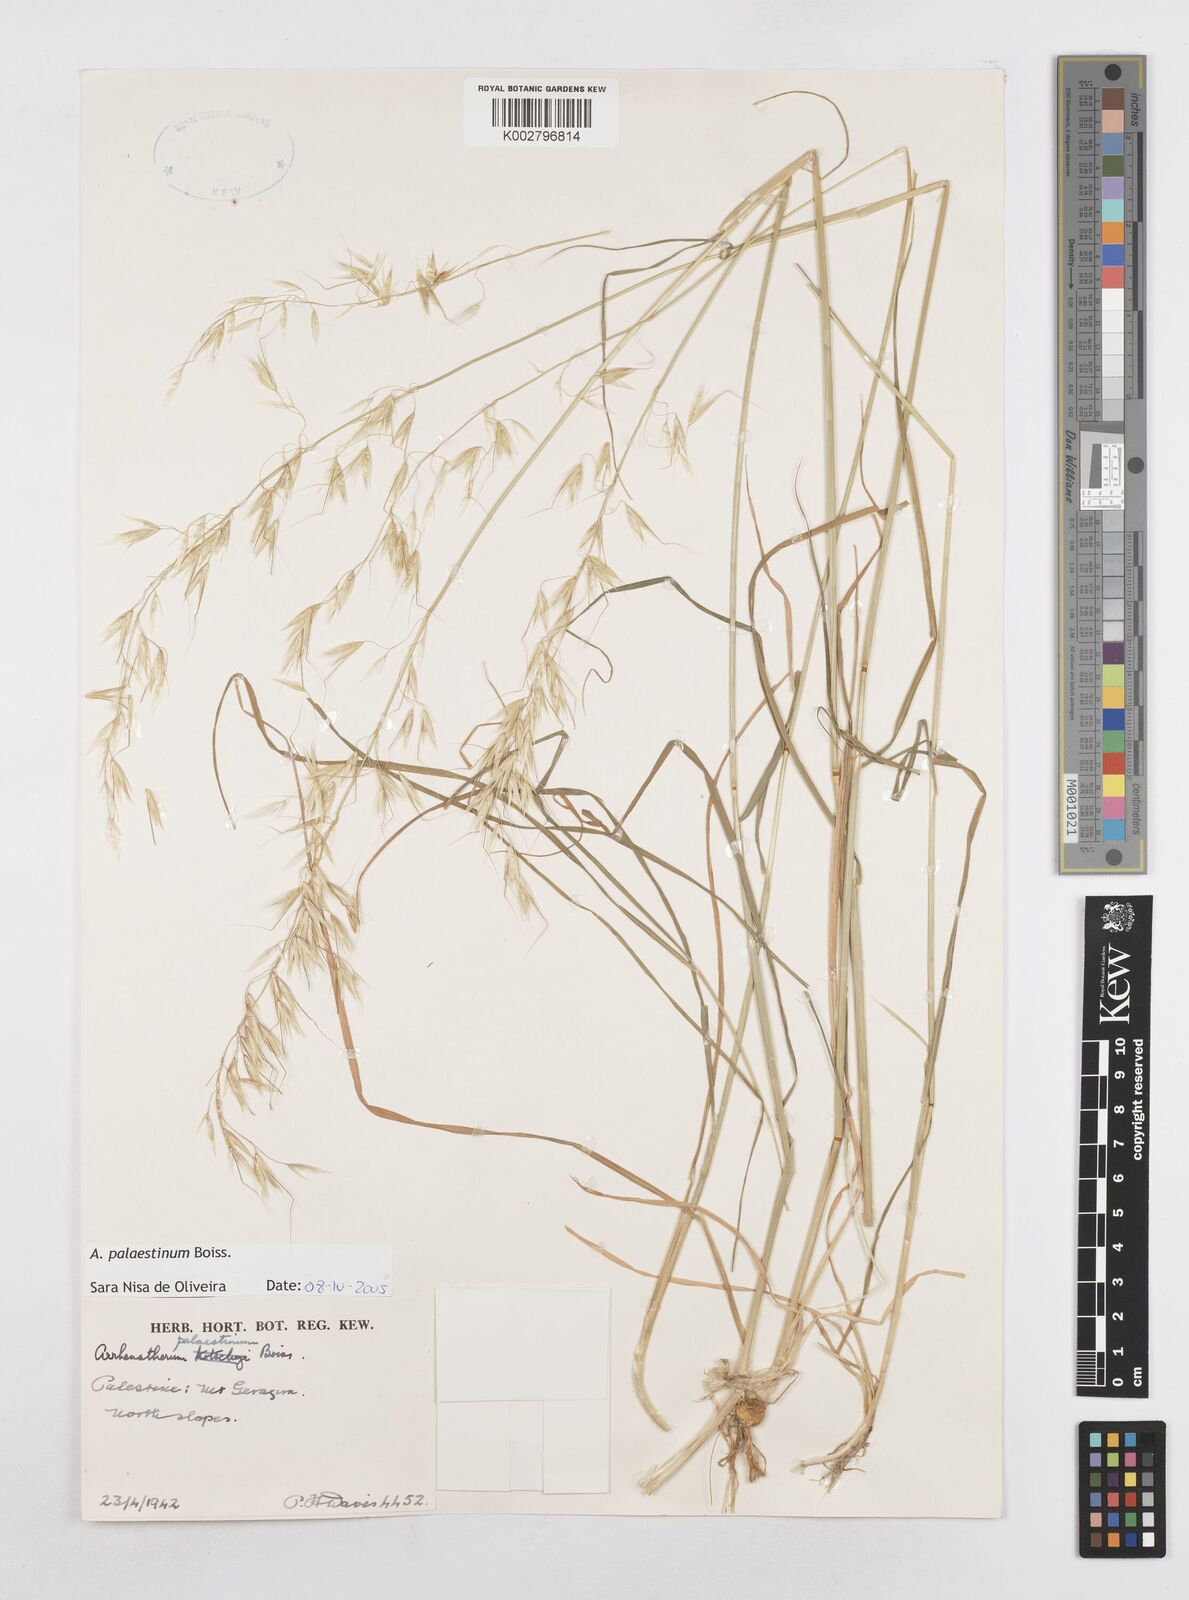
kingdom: Plantae
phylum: Tracheophyta
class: Liliopsida
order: Poales
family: Poaceae
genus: Arrhenatherum
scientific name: Arrhenatherum palaestinum
